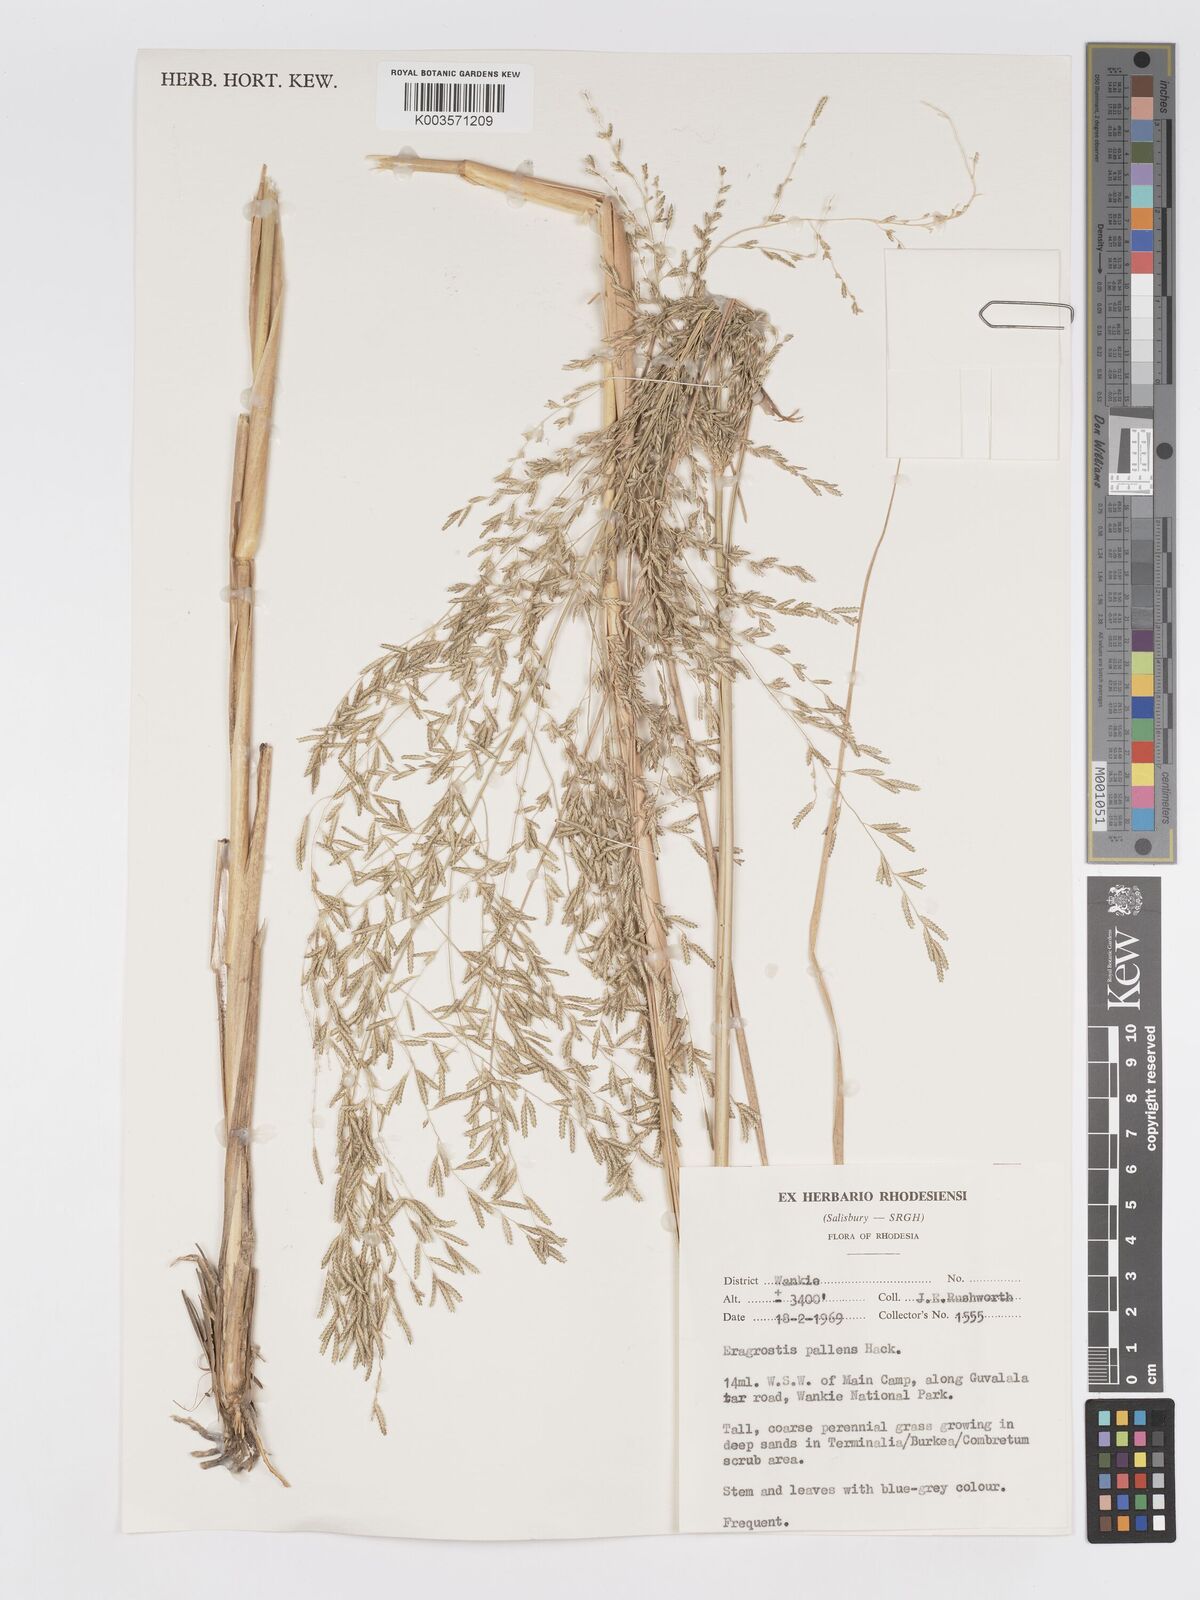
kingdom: Plantae
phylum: Tracheophyta
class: Liliopsida
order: Poales
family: Poaceae
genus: Eragrostis
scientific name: Eragrostis pallens
